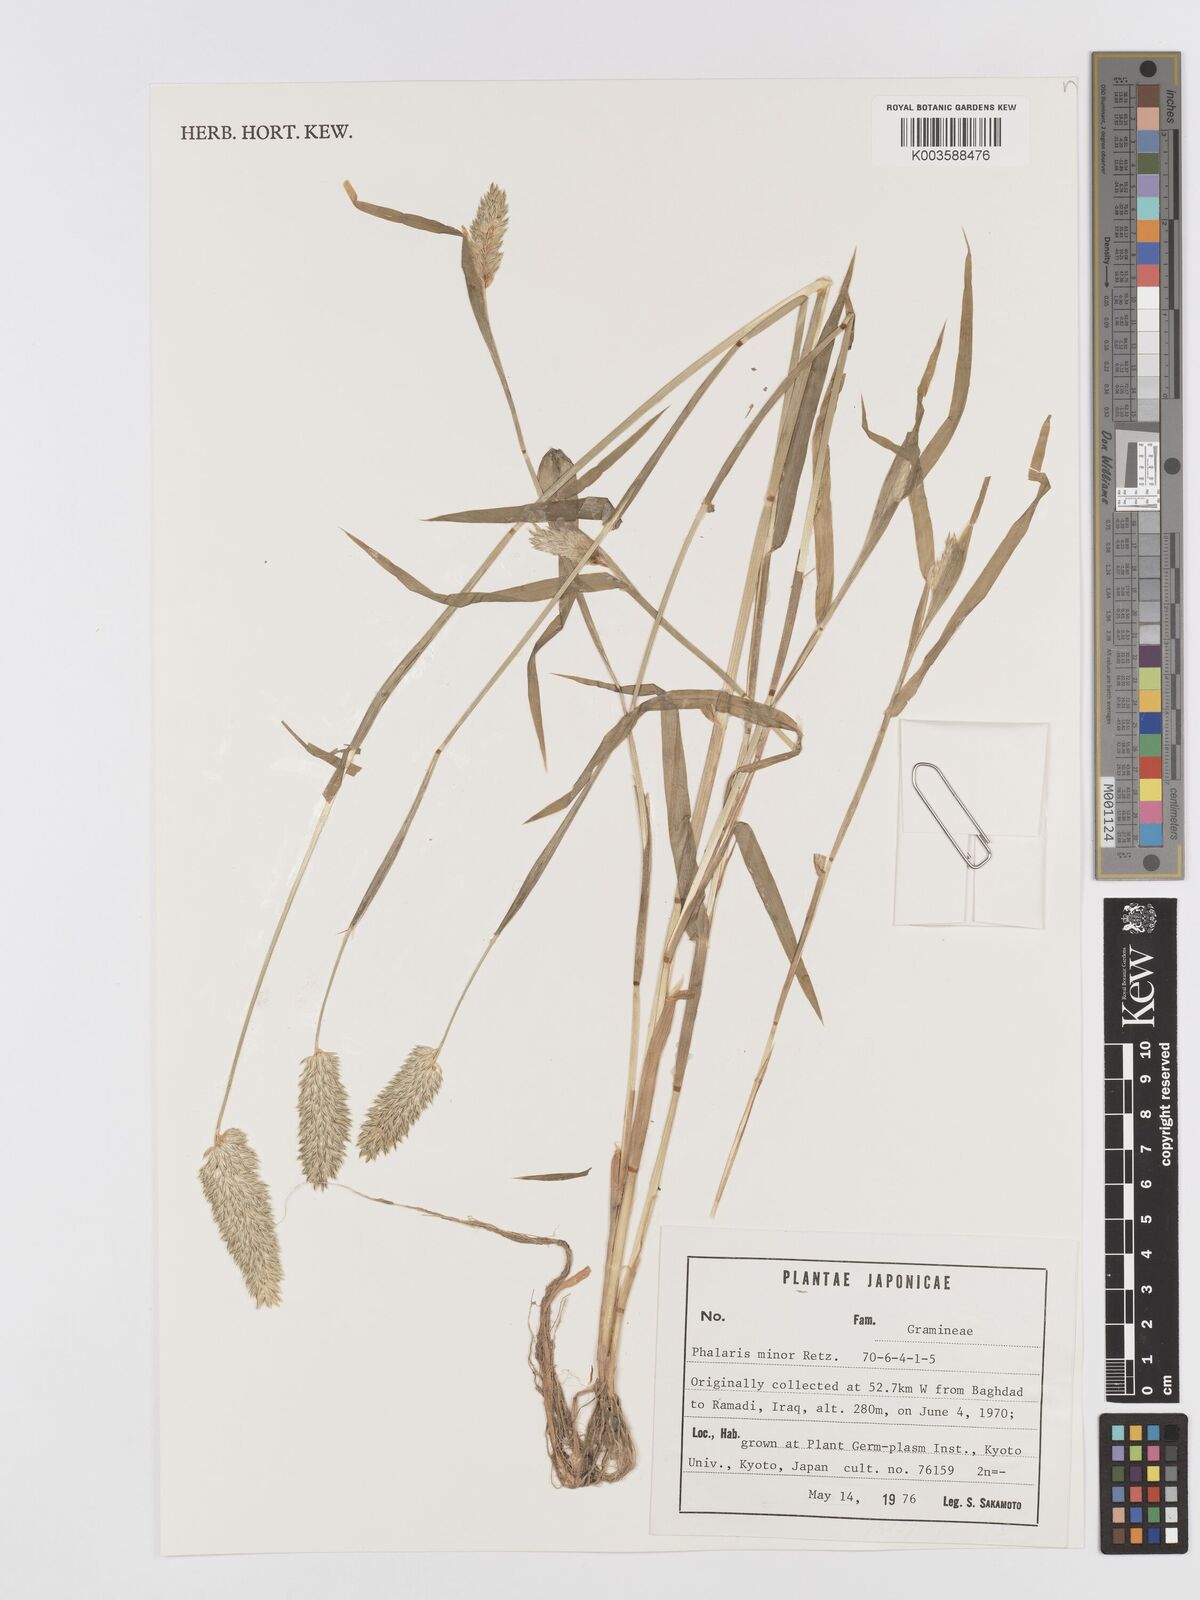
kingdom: Plantae
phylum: Tracheophyta
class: Liliopsida
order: Poales
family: Poaceae
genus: Phalaris
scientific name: Phalaris minor
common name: Littleseed canarygrass
